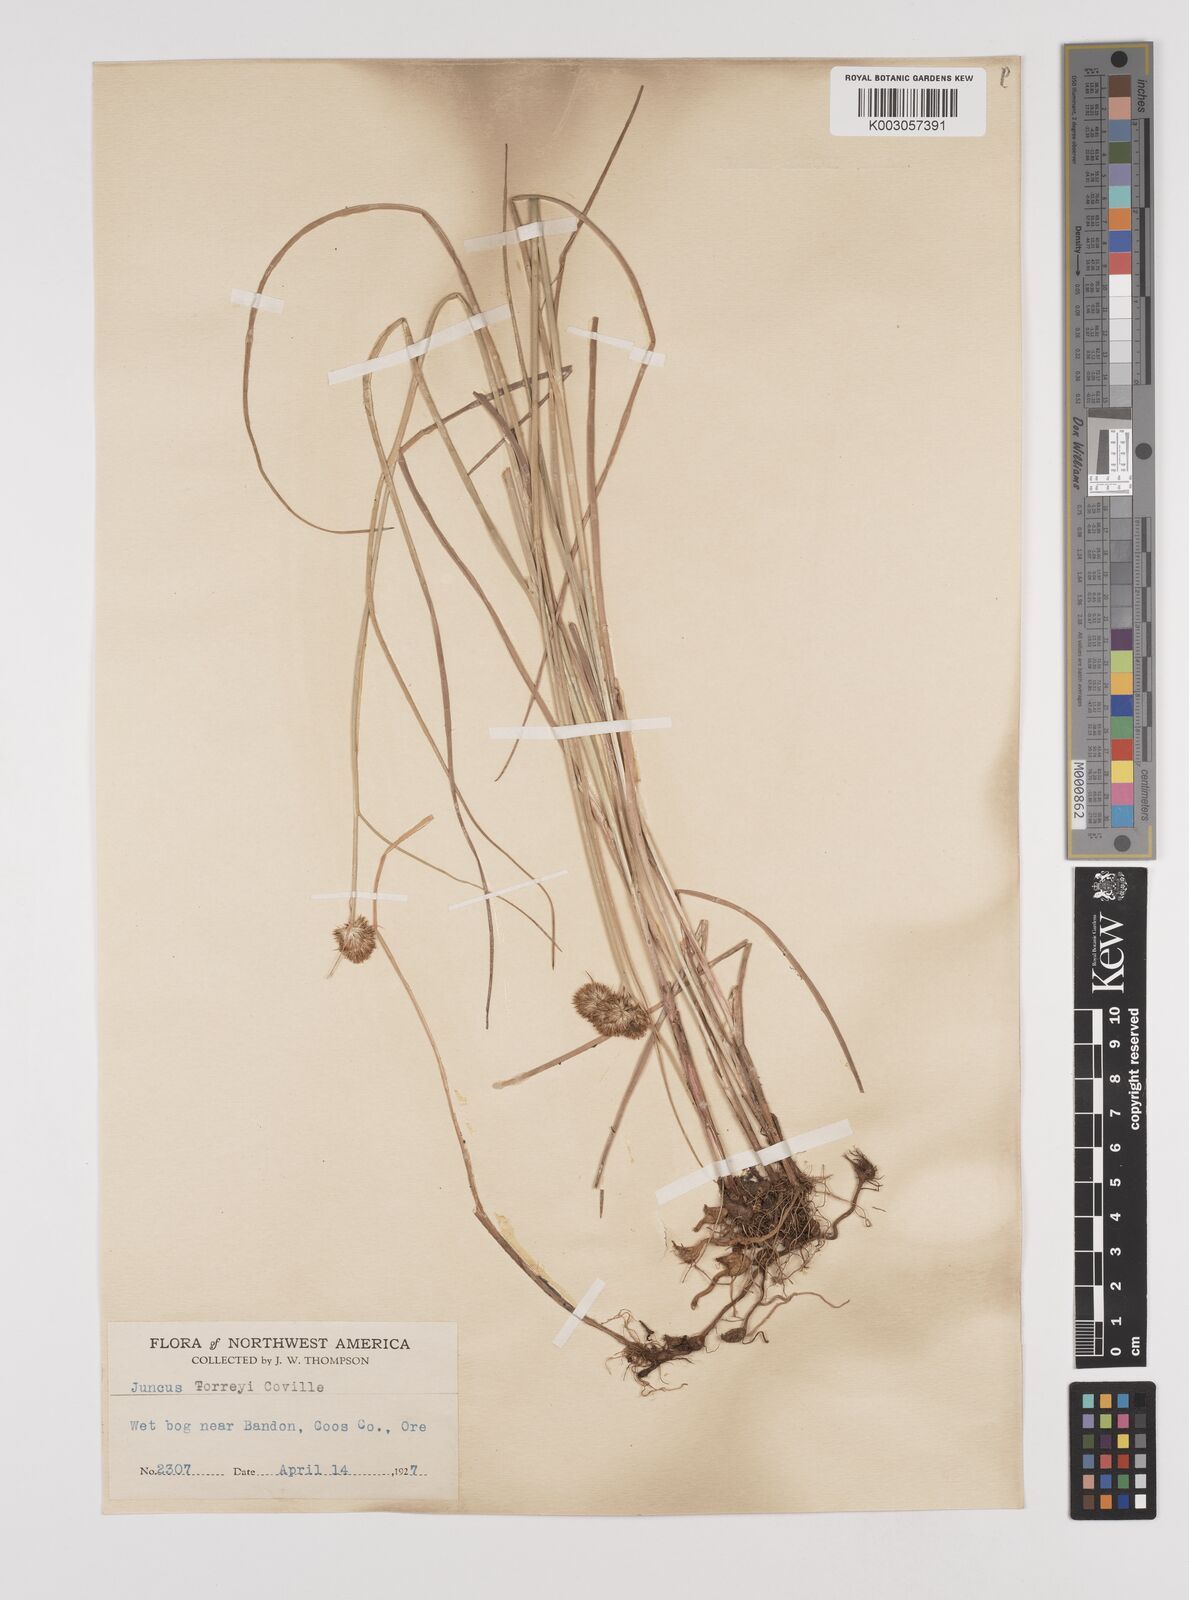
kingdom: Plantae
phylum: Tracheophyta
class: Liliopsida
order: Poales
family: Juncaceae
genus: Juncus
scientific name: Juncus torreyi
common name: Torrey's rush
